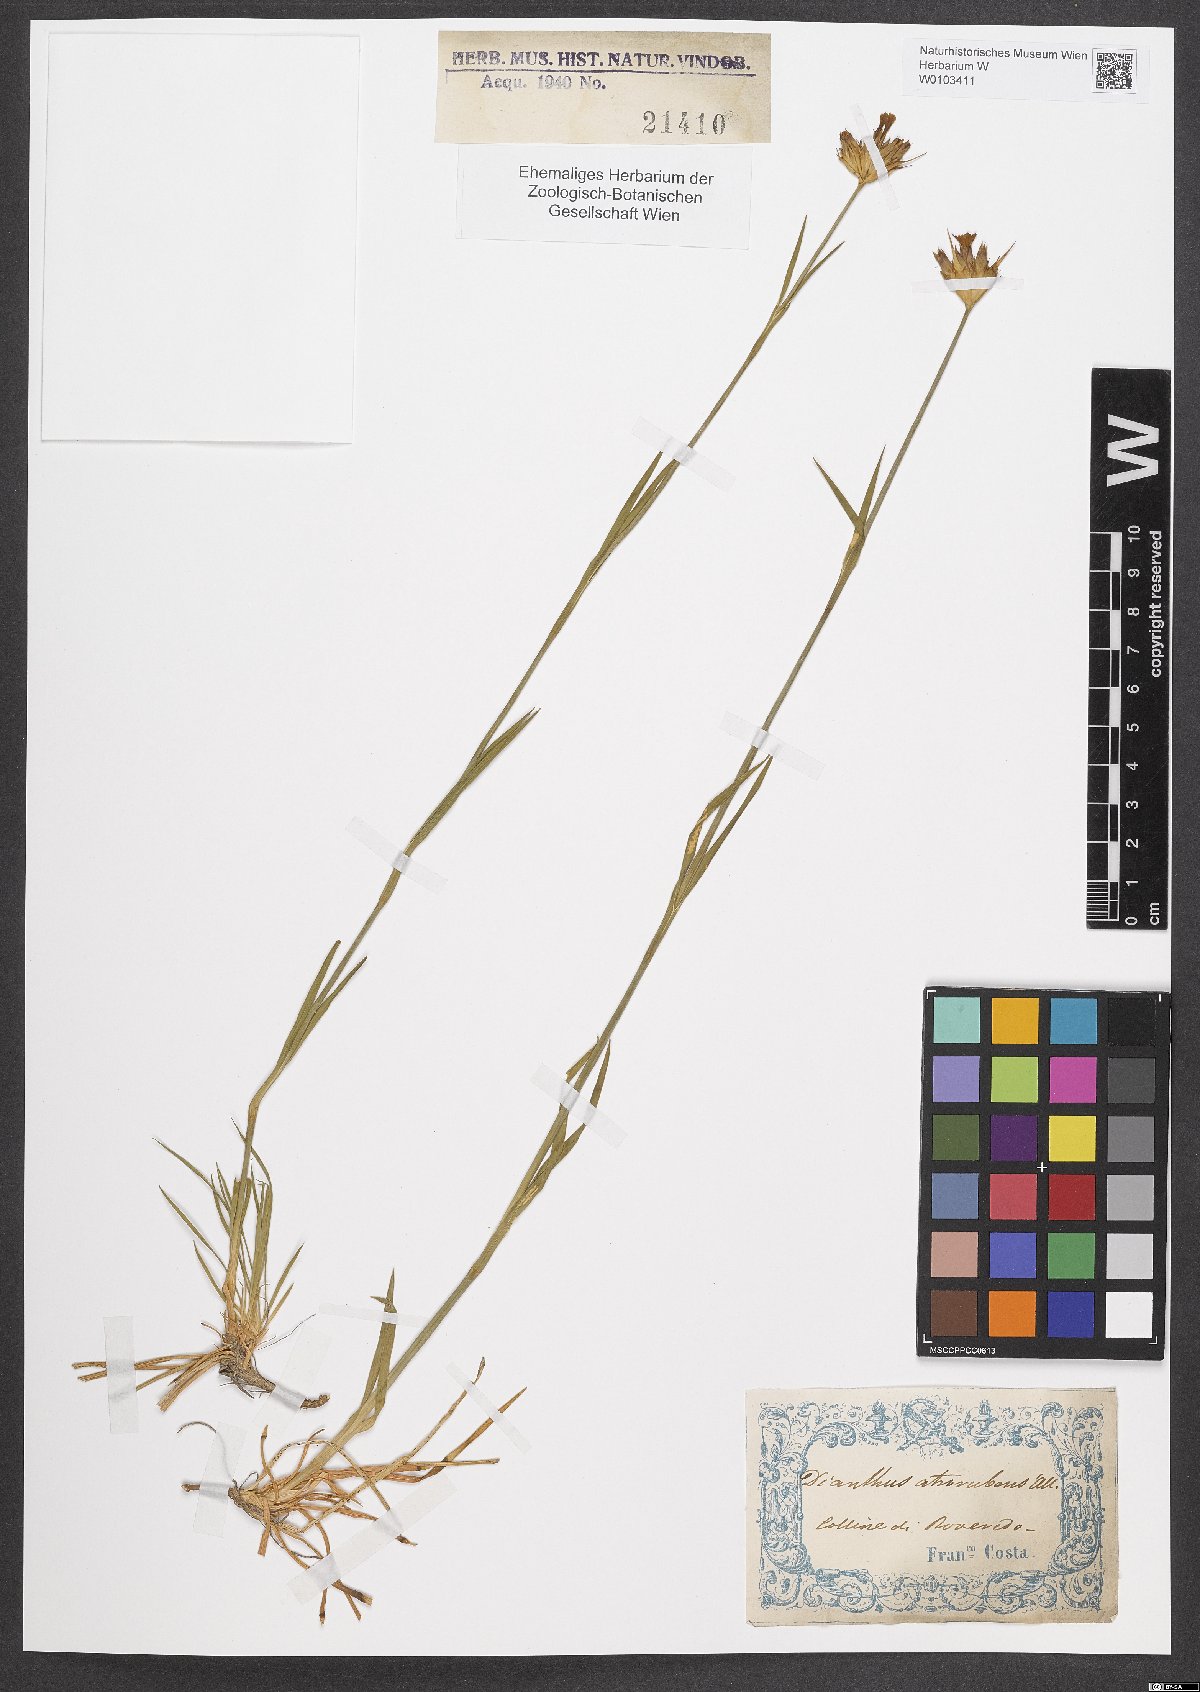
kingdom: Plantae
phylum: Tracheophyta
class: Magnoliopsida
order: Caryophyllales
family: Caryophyllaceae
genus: Dianthus
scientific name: Dianthus carthusianorum
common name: Carthusian pink
